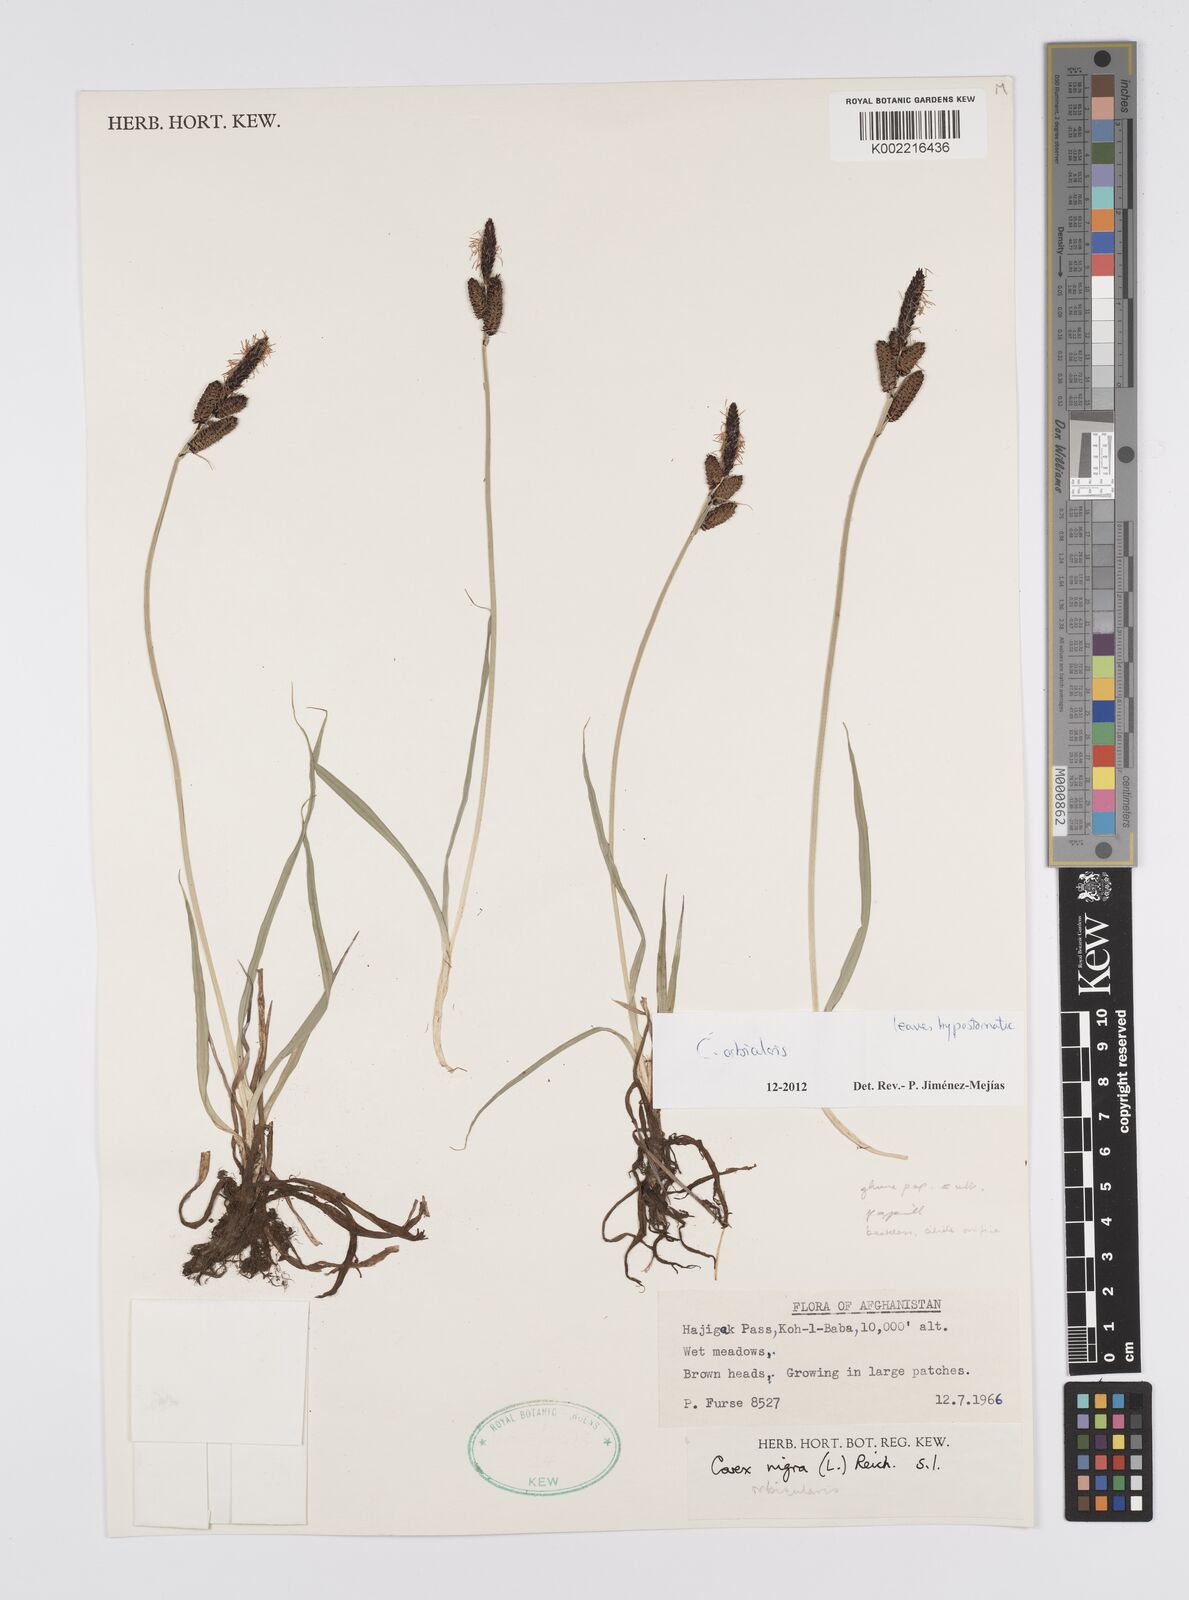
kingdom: Plantae
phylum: Tracheophyta
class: Liliopsida
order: Poales
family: Cyperaceae
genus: Carex
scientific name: Carex orbicularis
